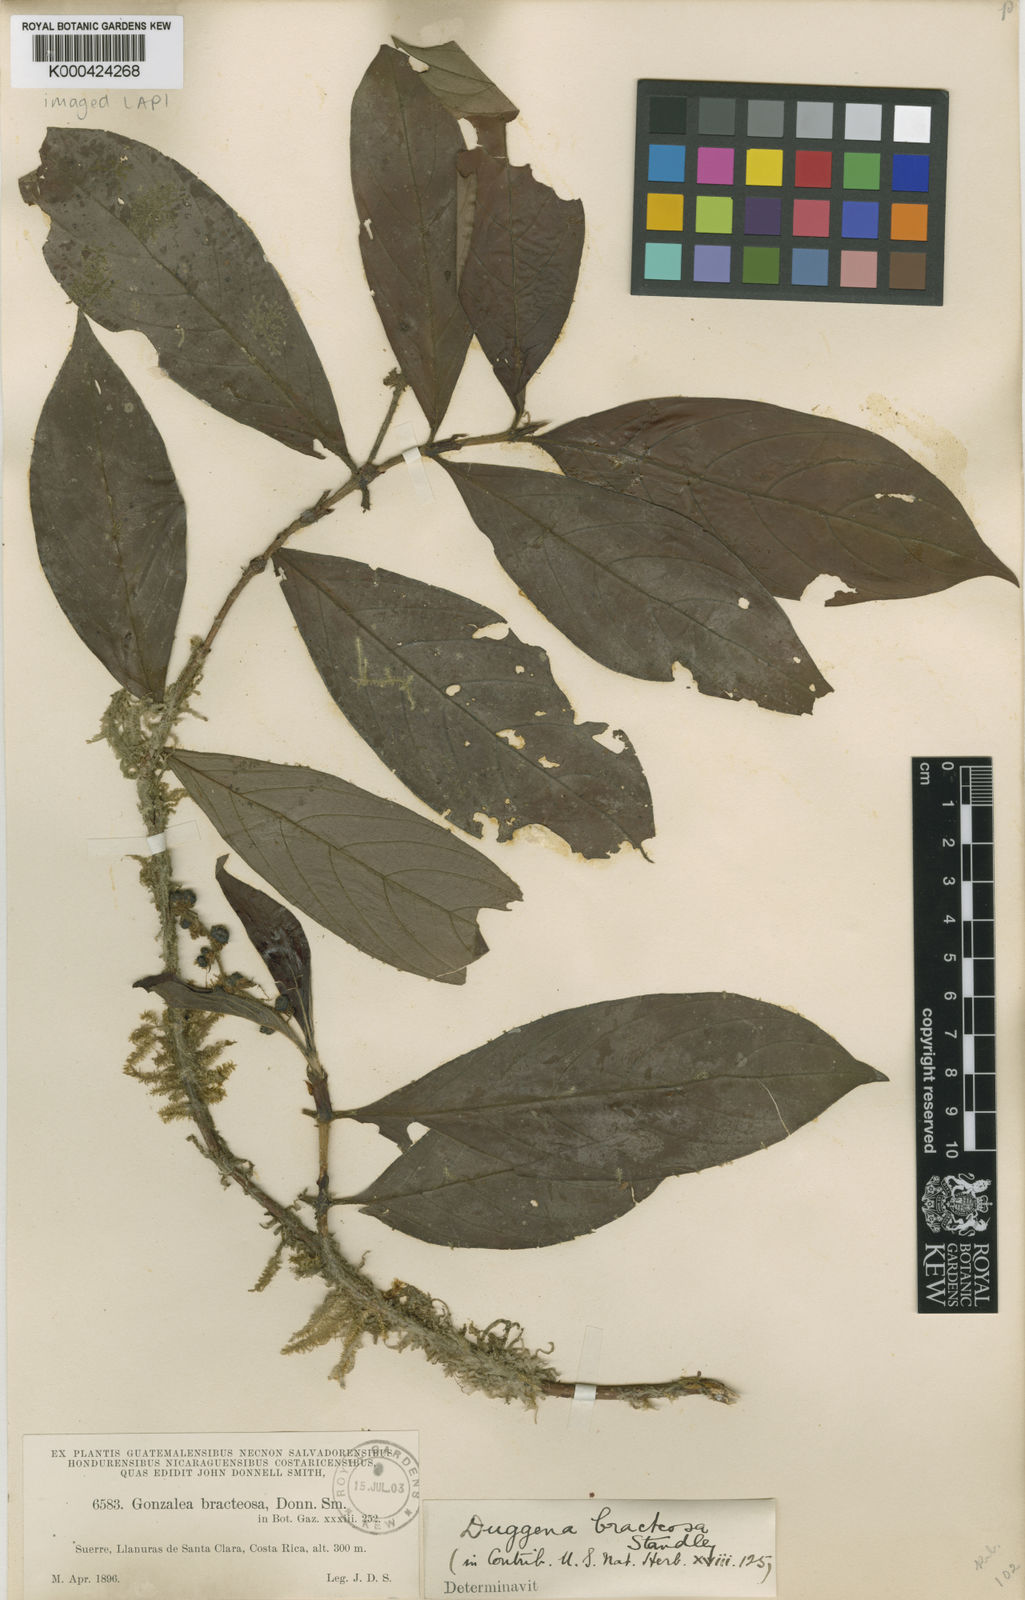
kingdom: Plantae
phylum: Tracheophyta
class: Magnoliopsida
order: Gentianales
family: Rubiaceae
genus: Bertiera
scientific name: Bertiera bracteosa
